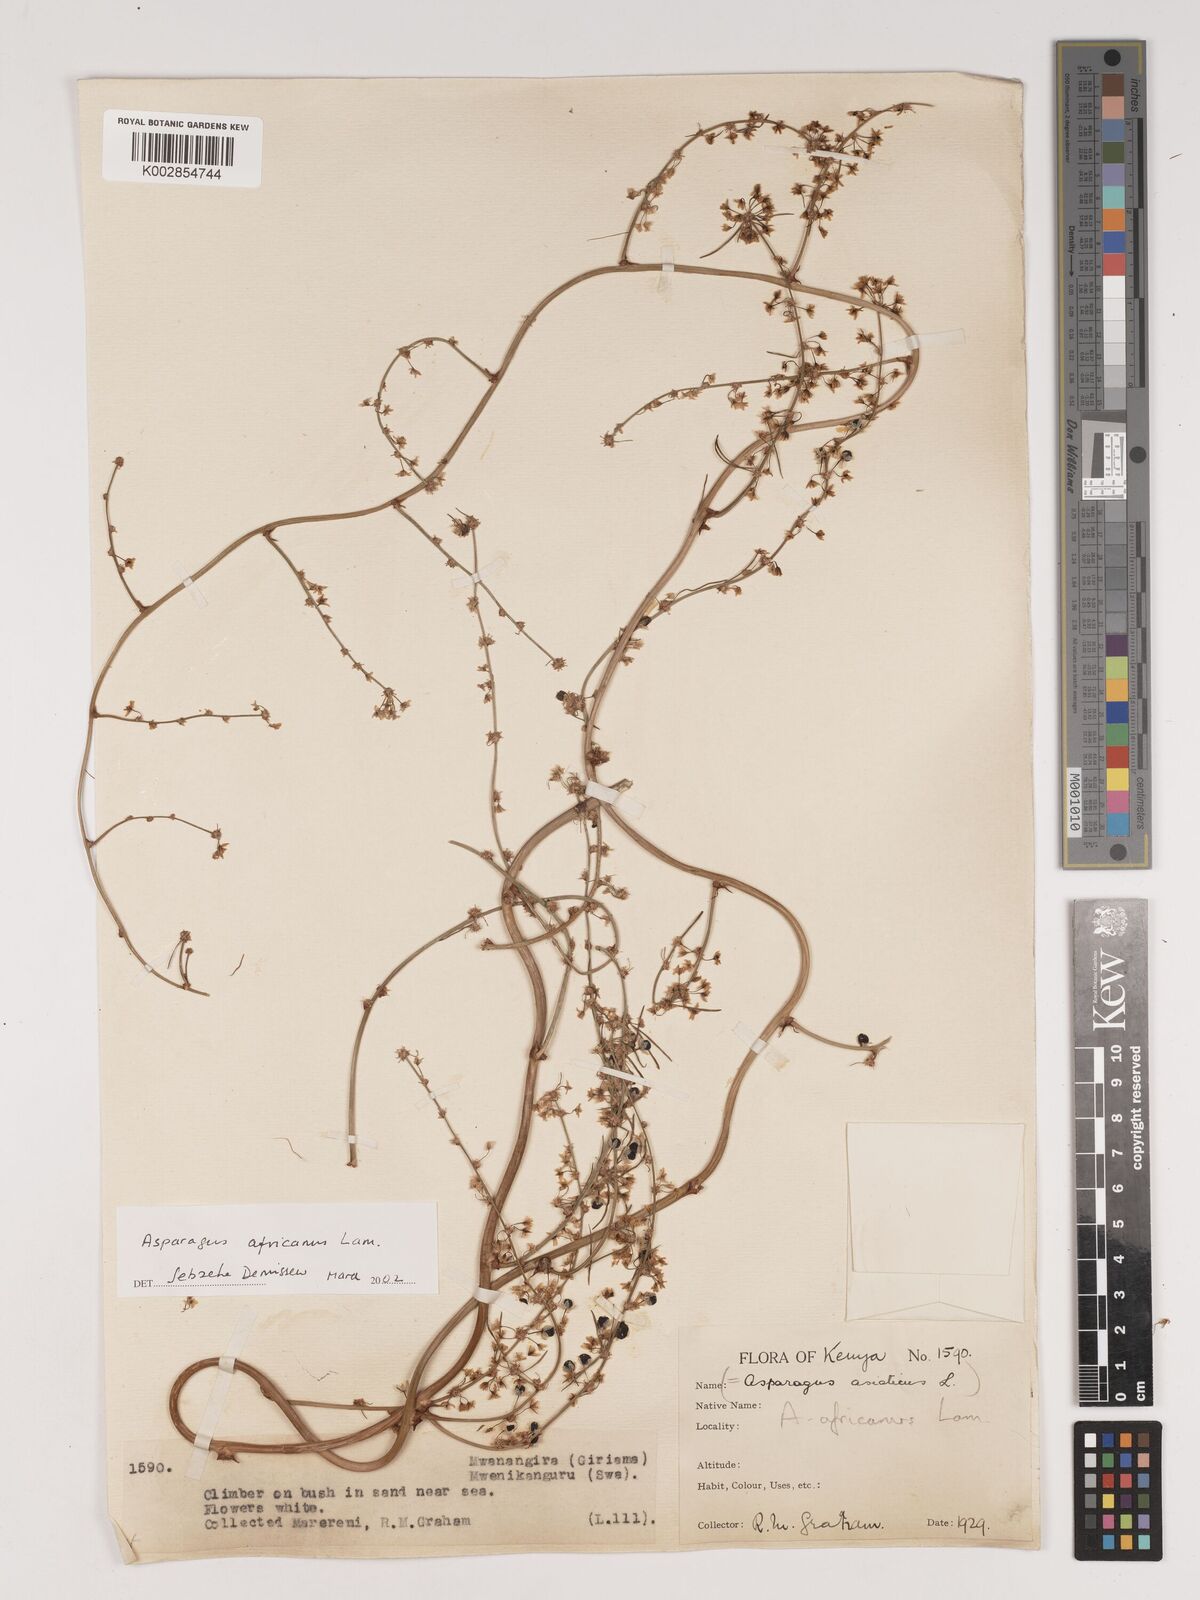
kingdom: Plantae
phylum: Tracheophyta
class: Liliopsida
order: Asparagales
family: Asparagaceae
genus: Asparagus
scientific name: Asparagus africanus
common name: Asparagus-fern
